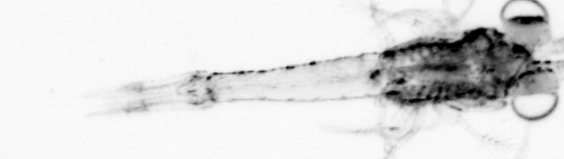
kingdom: Animalia
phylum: Arthropoda
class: Malacostraca
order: Decapoda
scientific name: Decapoda
